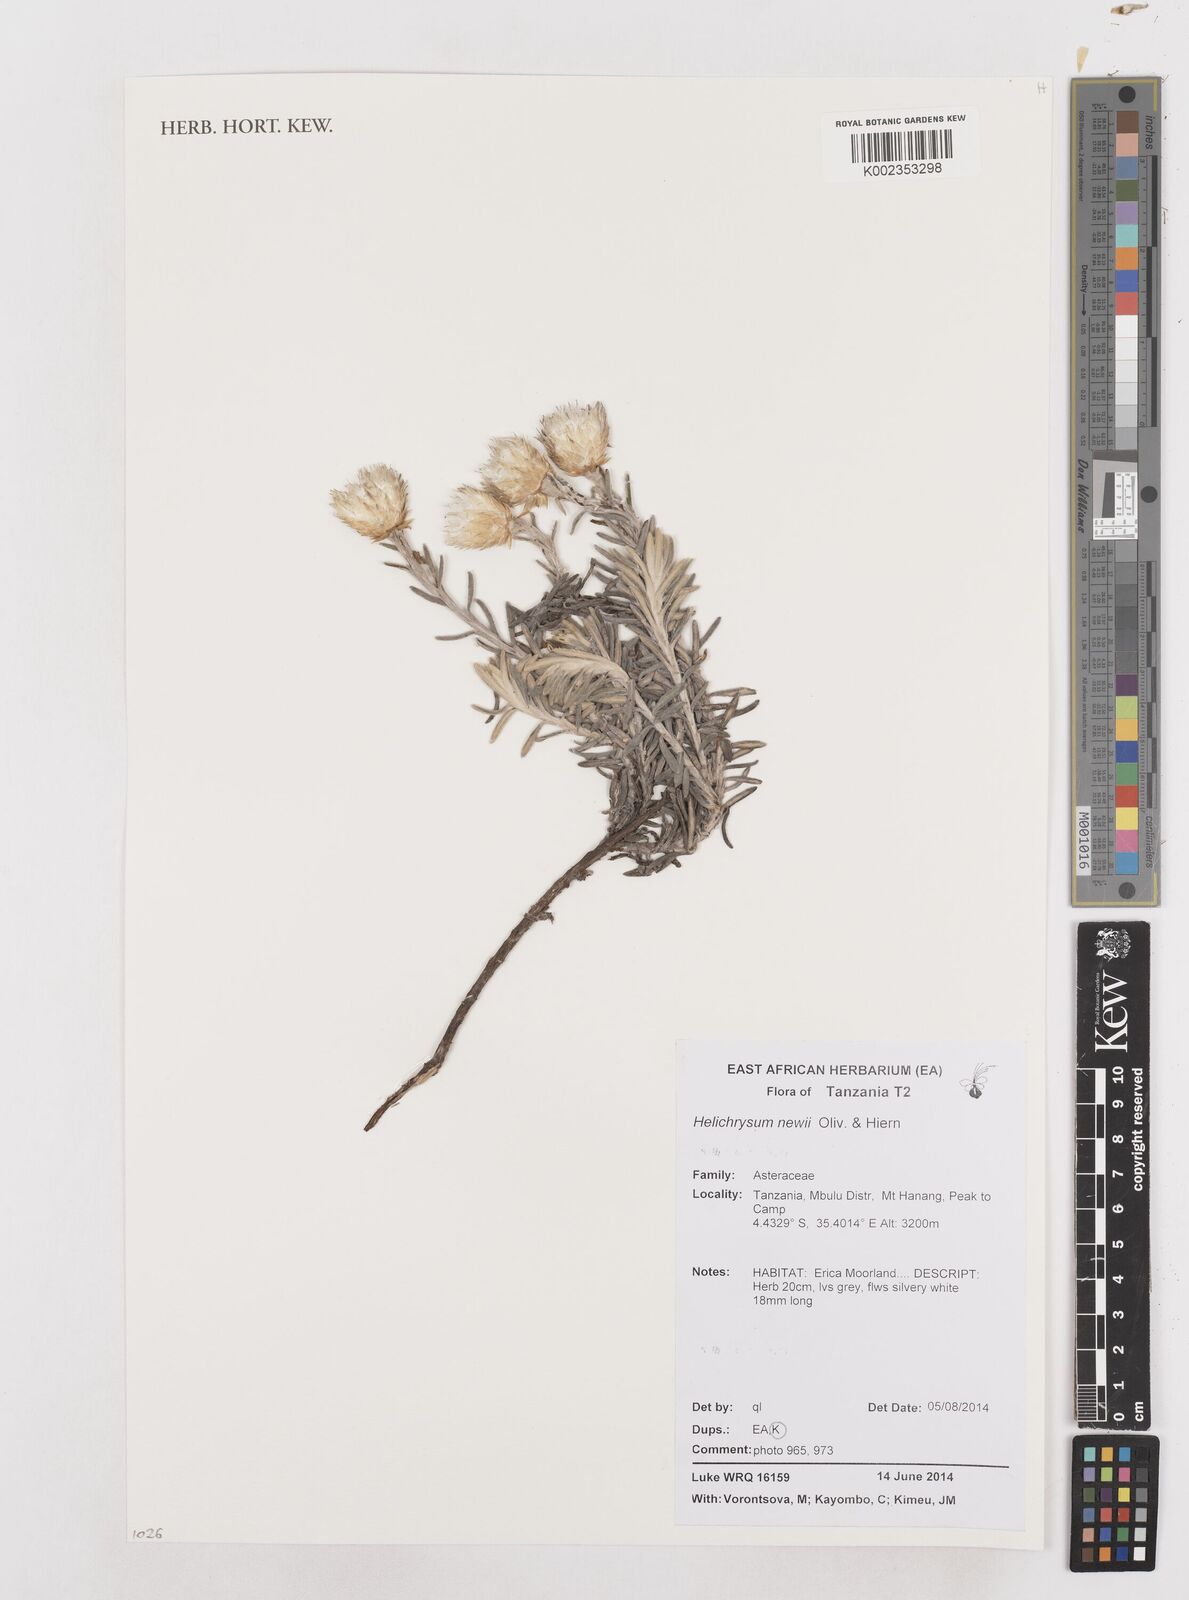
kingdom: Plantae
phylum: Tracheophyta
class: Magnoliopsida
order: Asterales
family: Asteraceae
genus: Helichrysum
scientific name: Helichrysum newii
